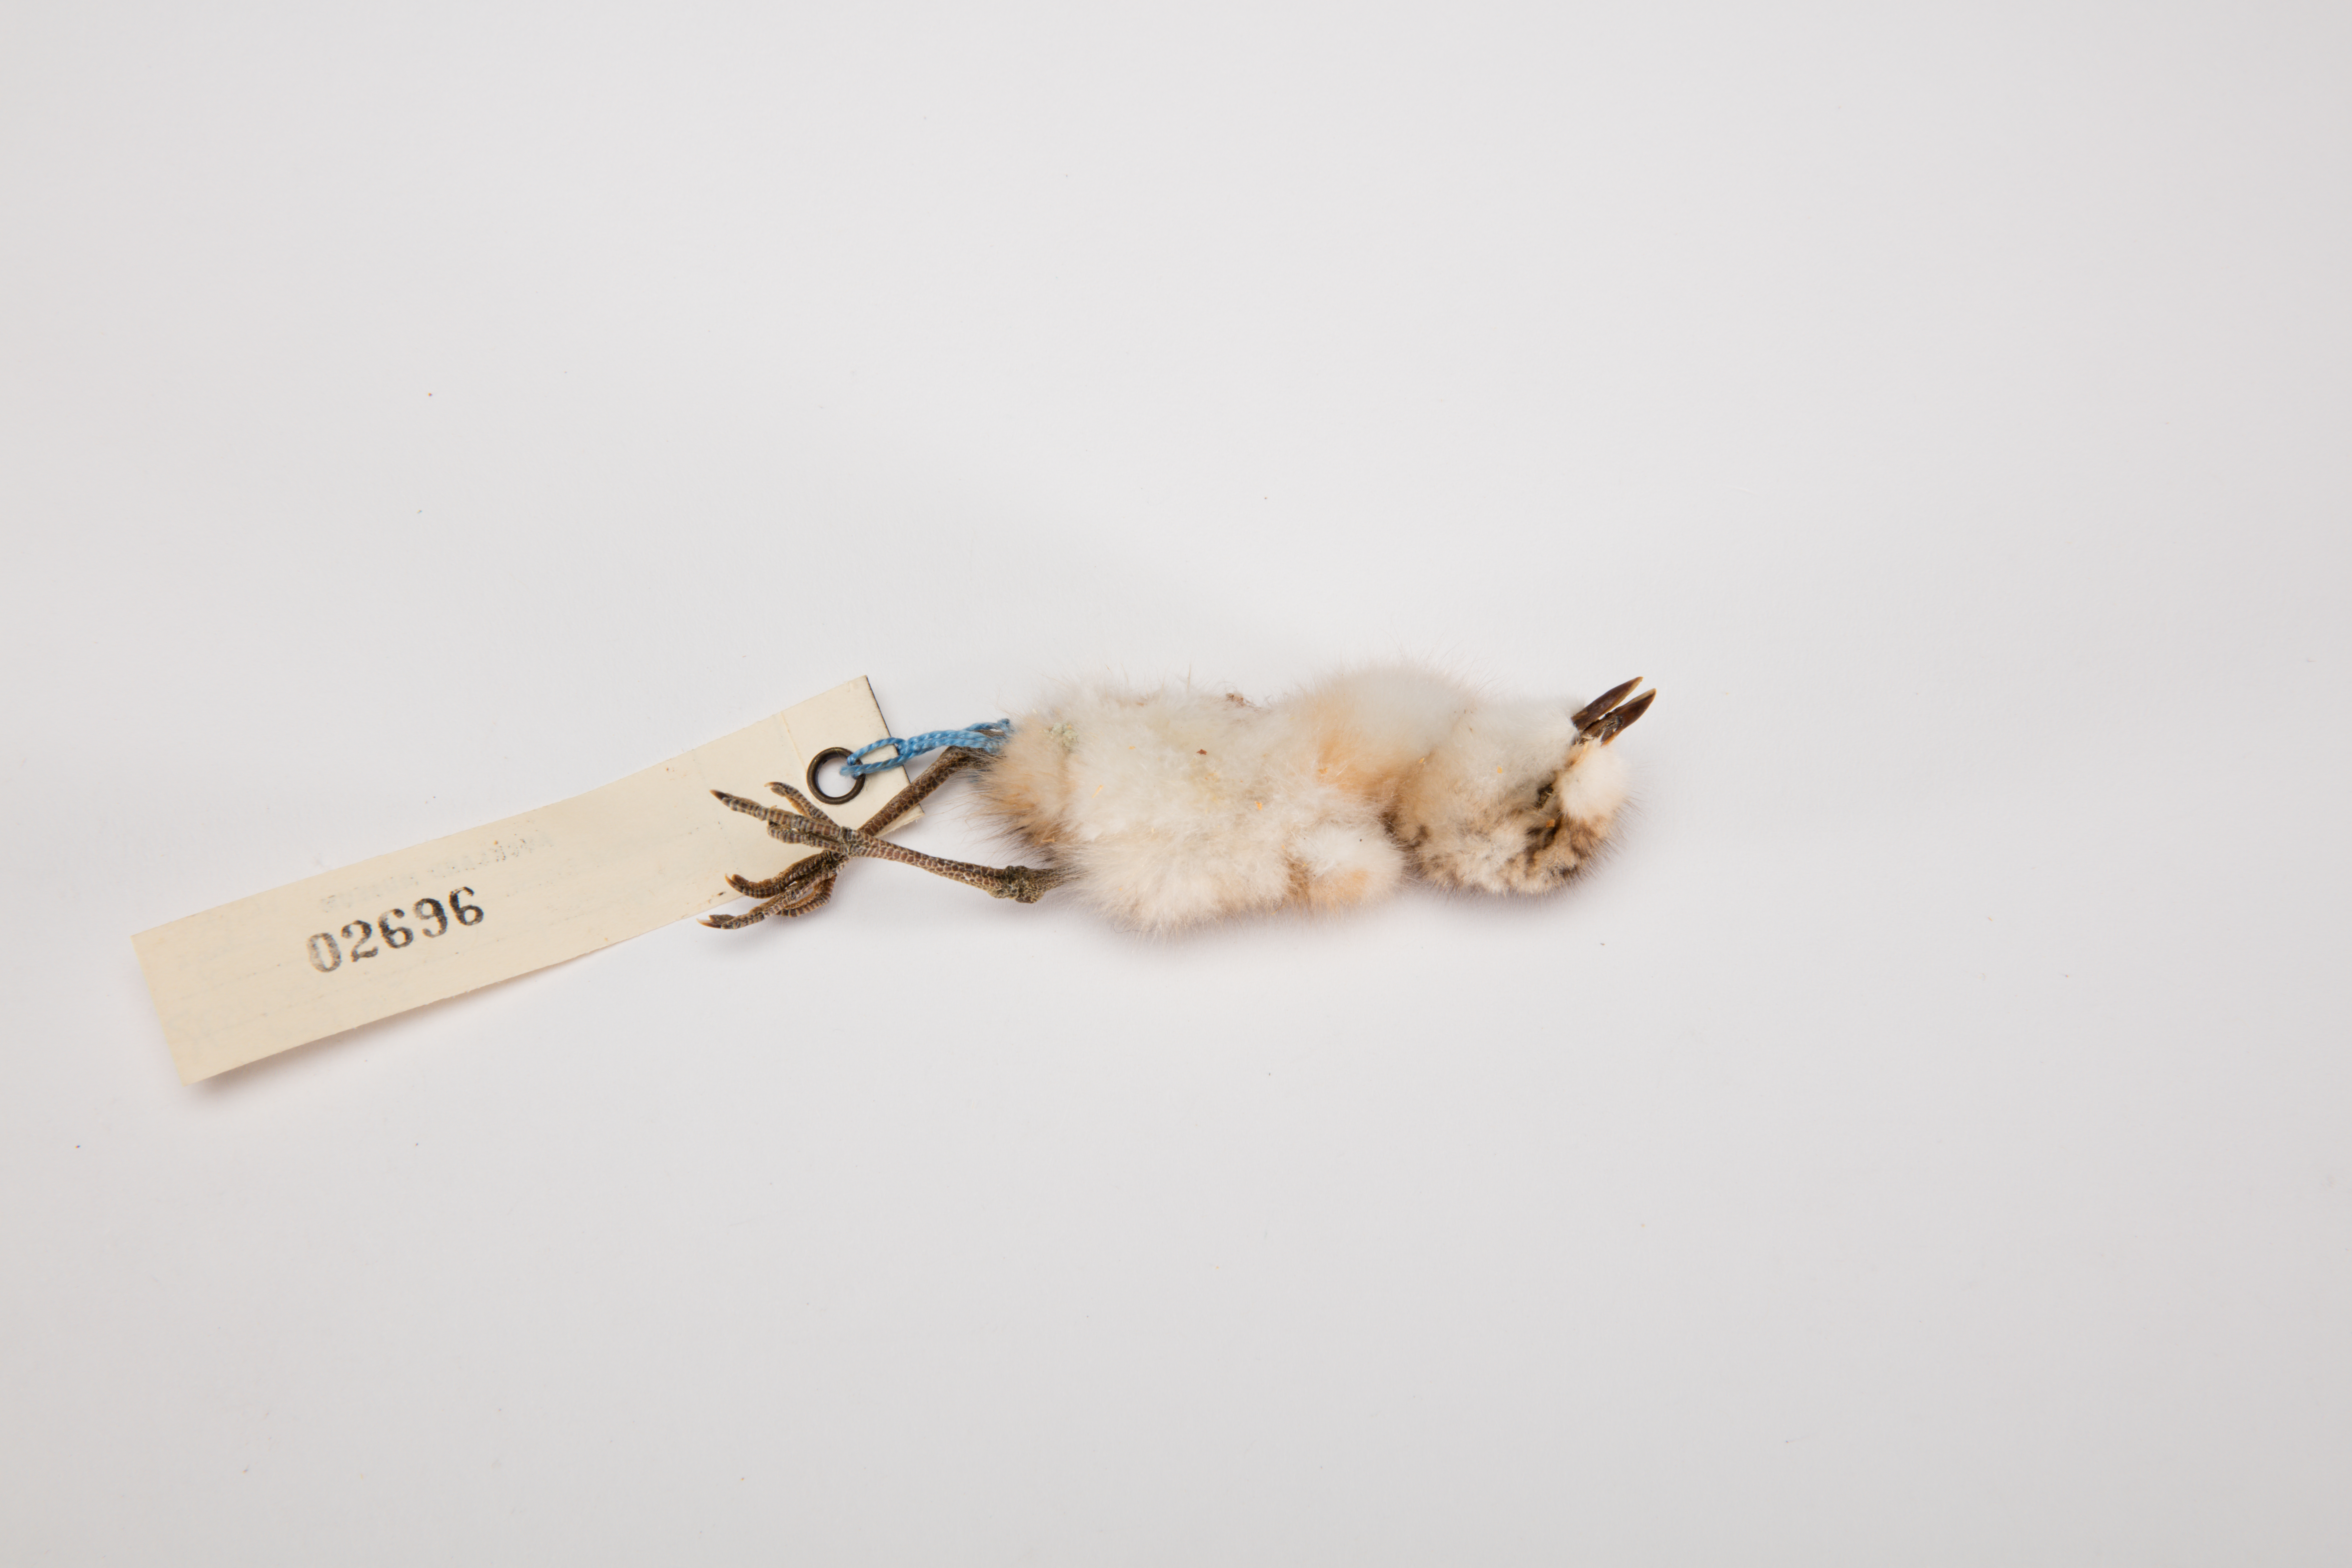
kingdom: Animalia
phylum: Chordata
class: Aves
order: Charadriiformes
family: Charadriidae
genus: Charadrius
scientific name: Charadrius obscurus
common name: New zealand plover
